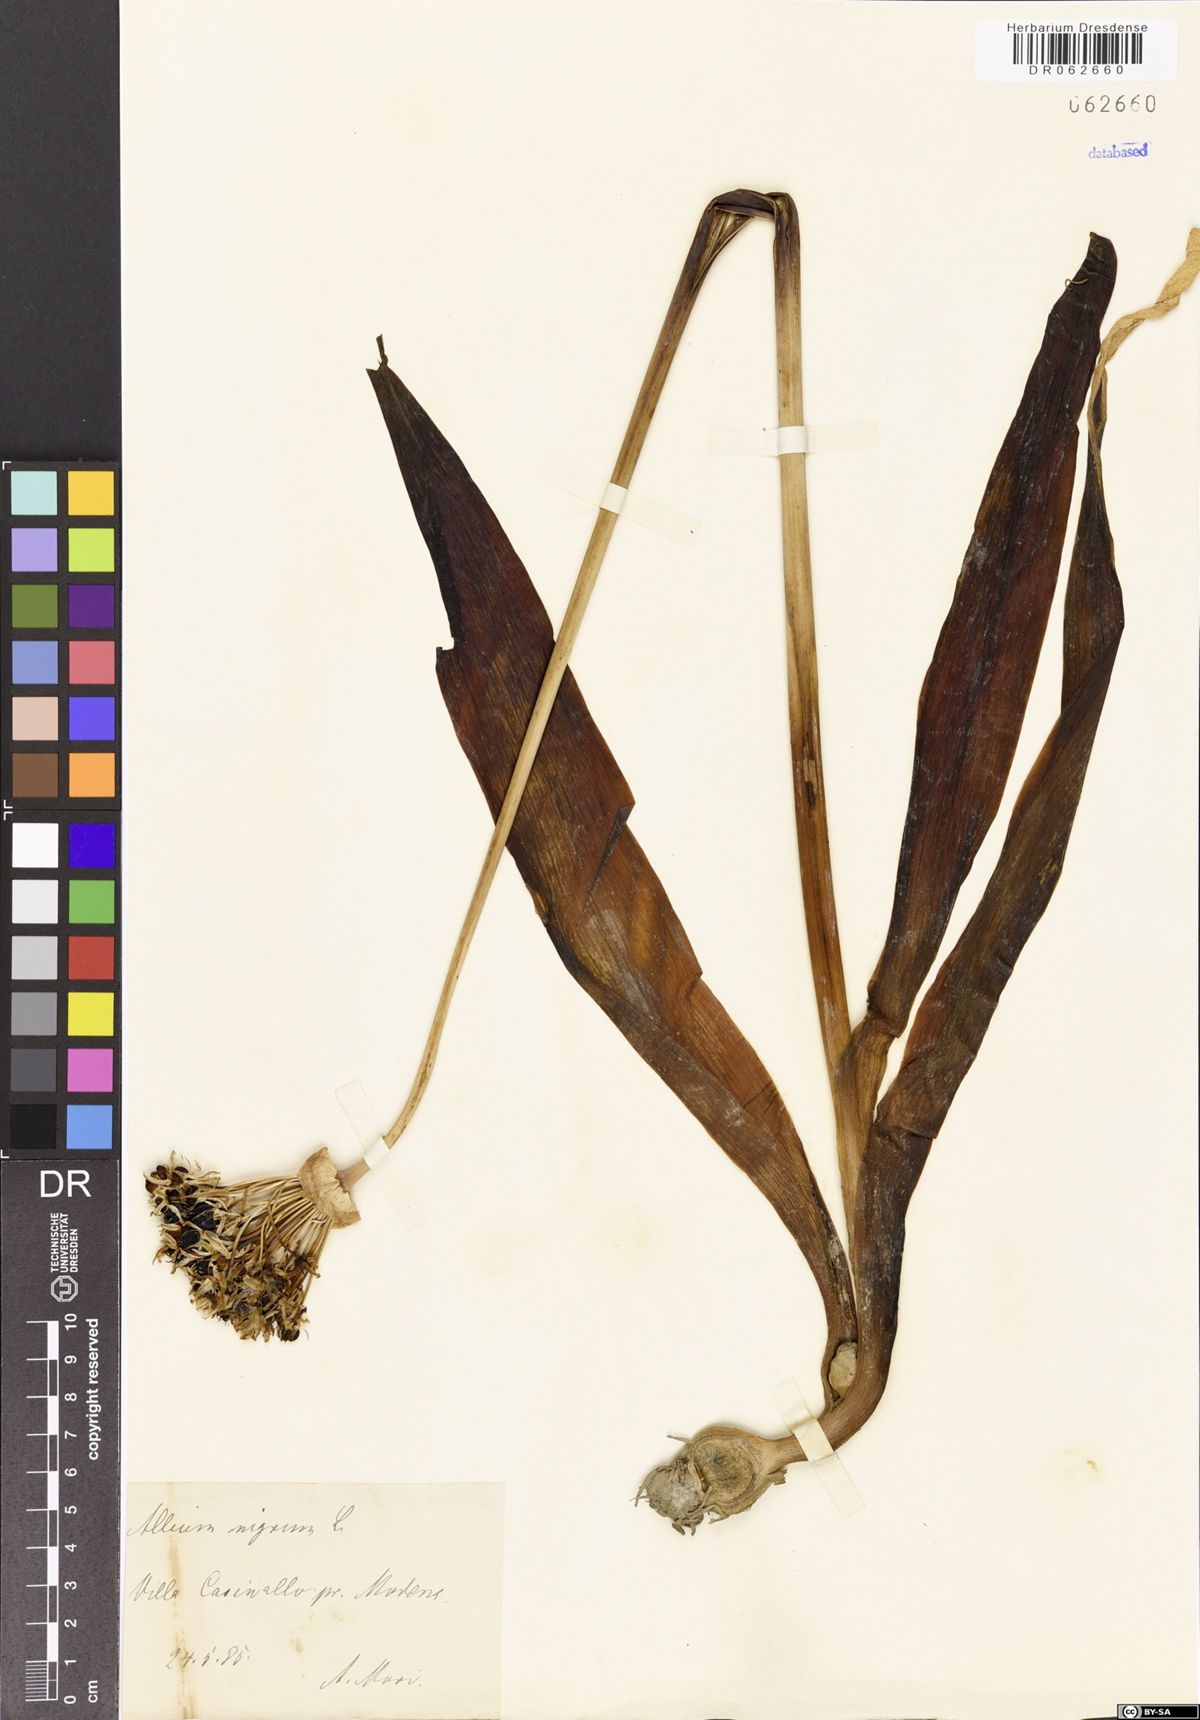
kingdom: Plantae
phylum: Tracheophyta
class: Liliopsida
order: Asparagales
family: Amaryllidaceae
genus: Allium
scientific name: Allium nigrum
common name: Black garlic
